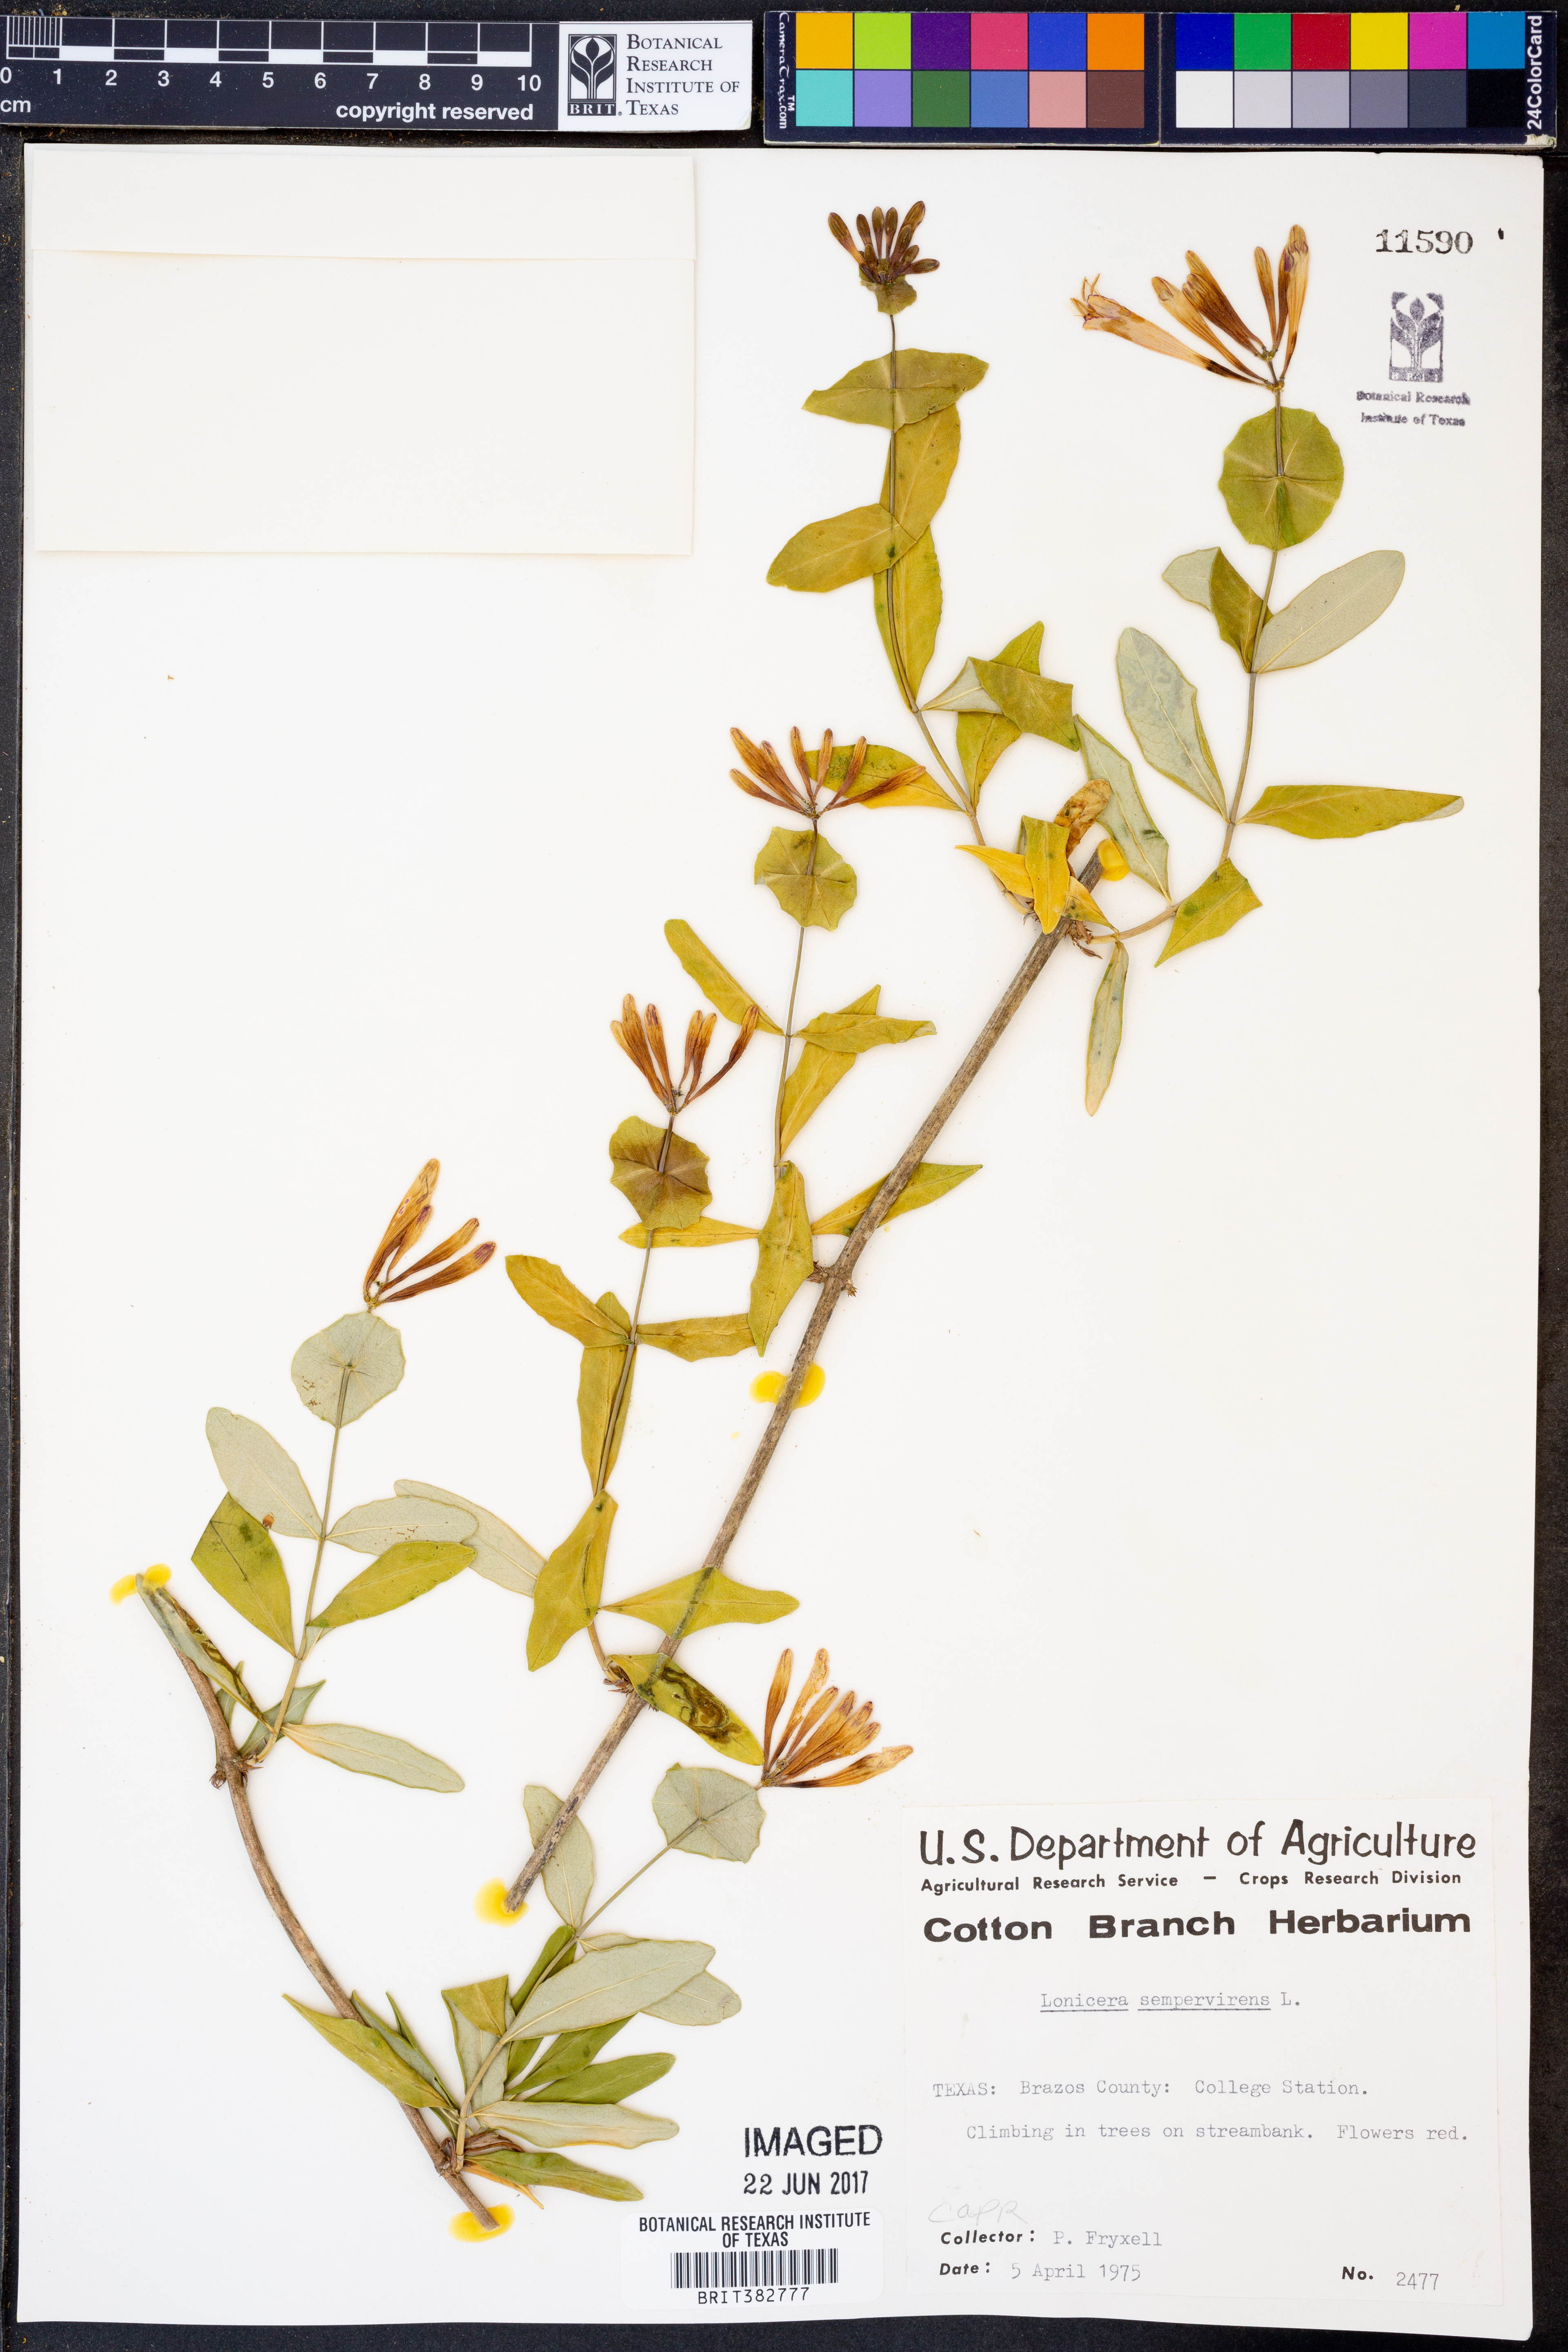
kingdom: Plantae
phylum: Tracheophyta
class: Magnoliopsida
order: Dipsacales
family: Caprifoliaceae
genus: Lonicera
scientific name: Lonicera sempervirens
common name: Coral honeysuckle
